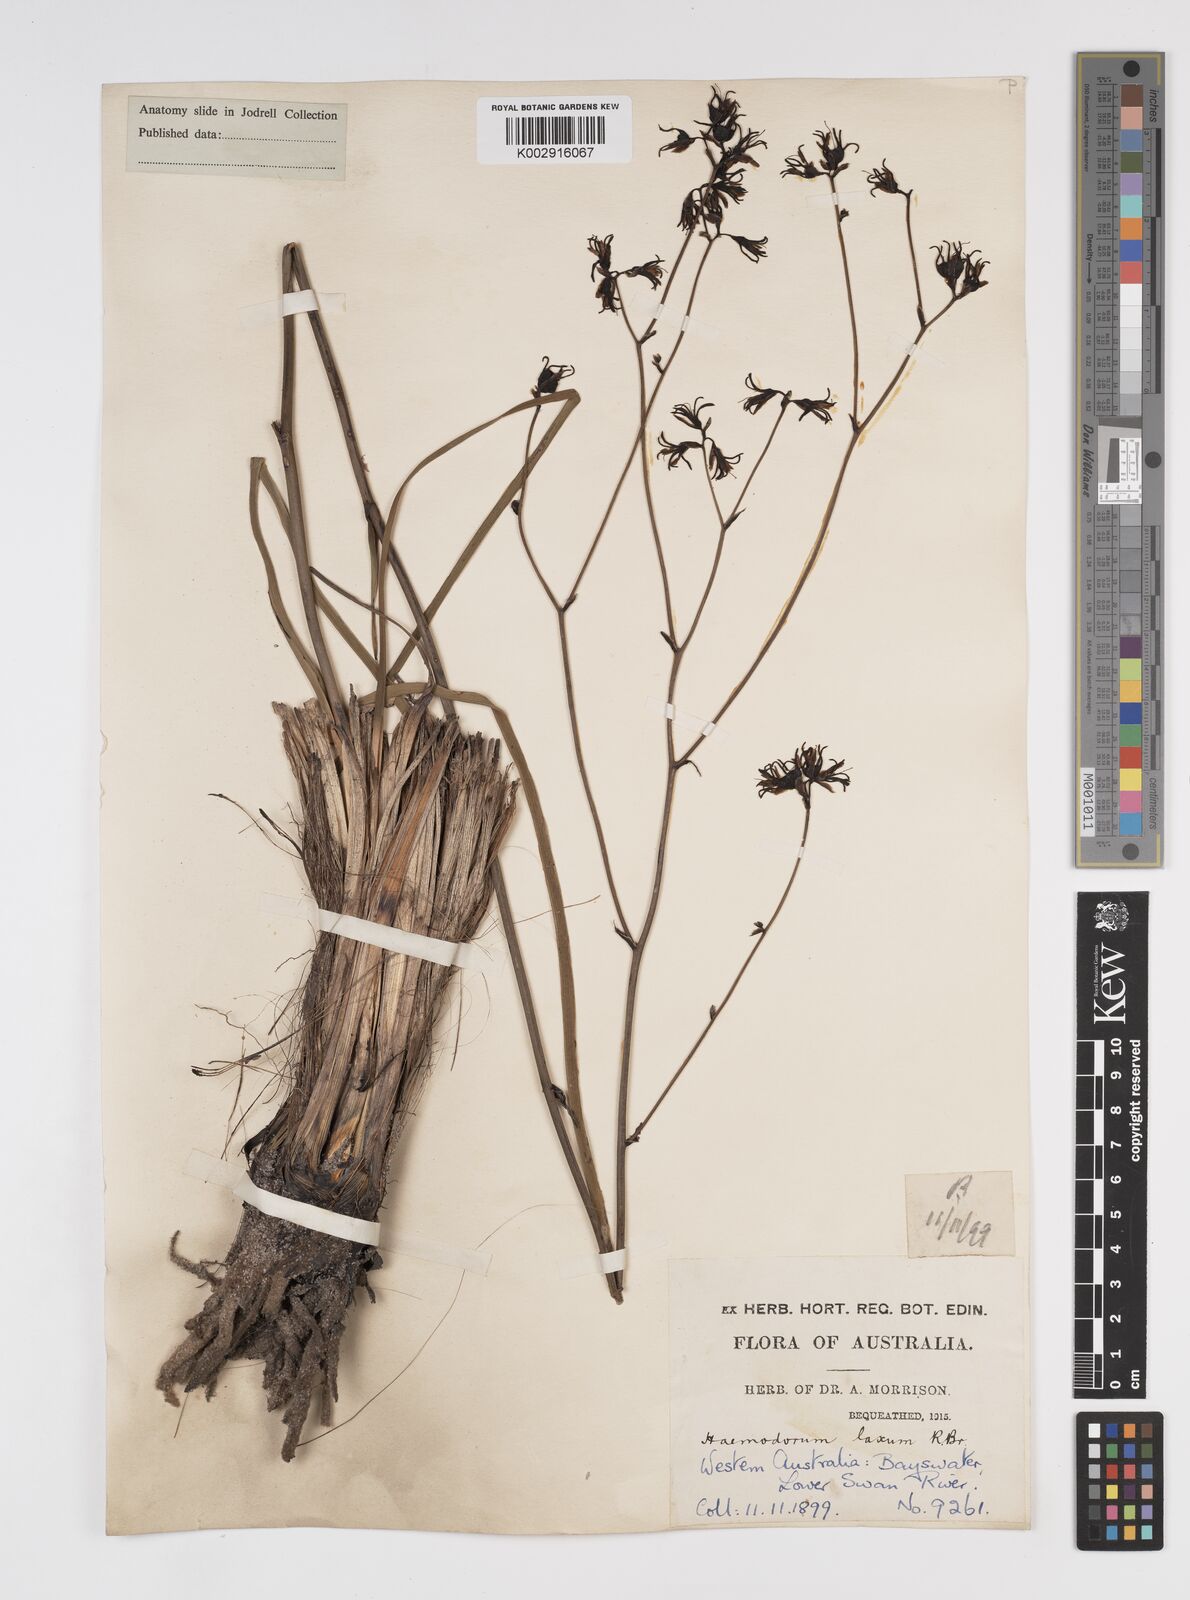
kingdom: Plantae
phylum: Tracheophyta
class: Liliopsida
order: Commelinales
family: Haemodoraceae
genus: Haemodorum
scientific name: Haemodorum laxum
